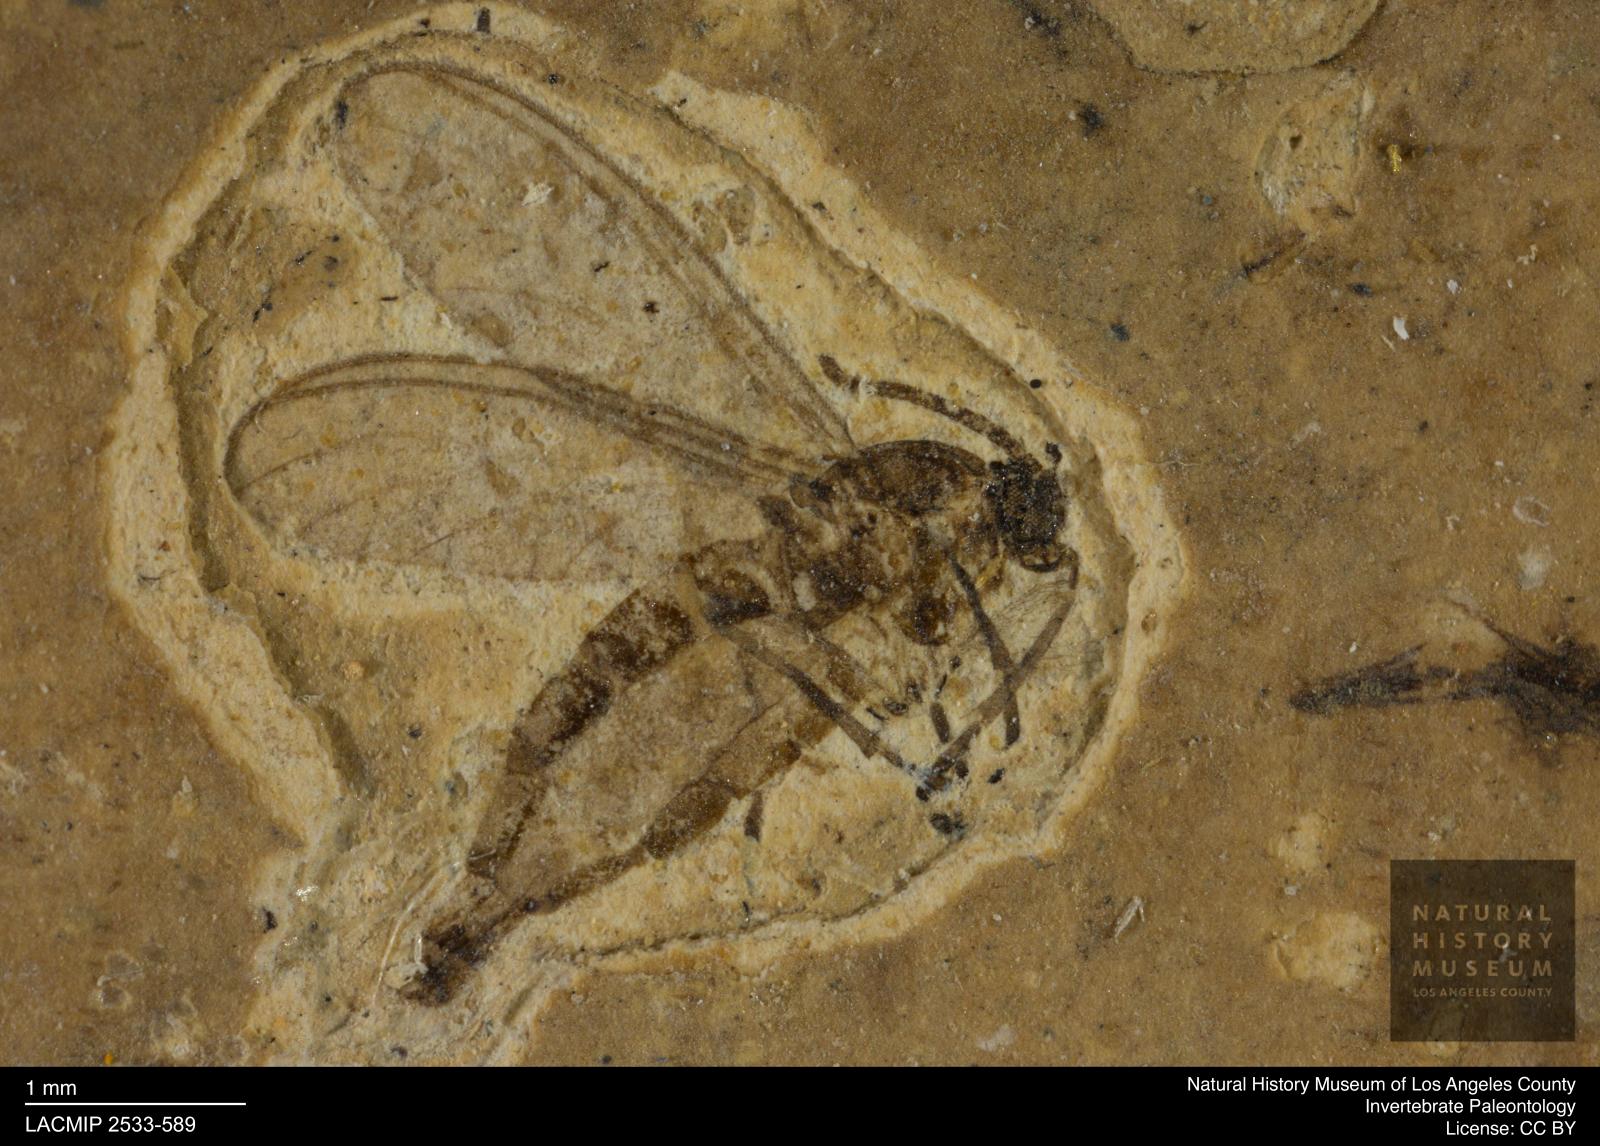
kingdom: Animalia
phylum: Arthropoda
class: Insecta
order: Diptera
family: Sciaridae
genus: Sciara
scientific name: Sciara lengersdorfi
